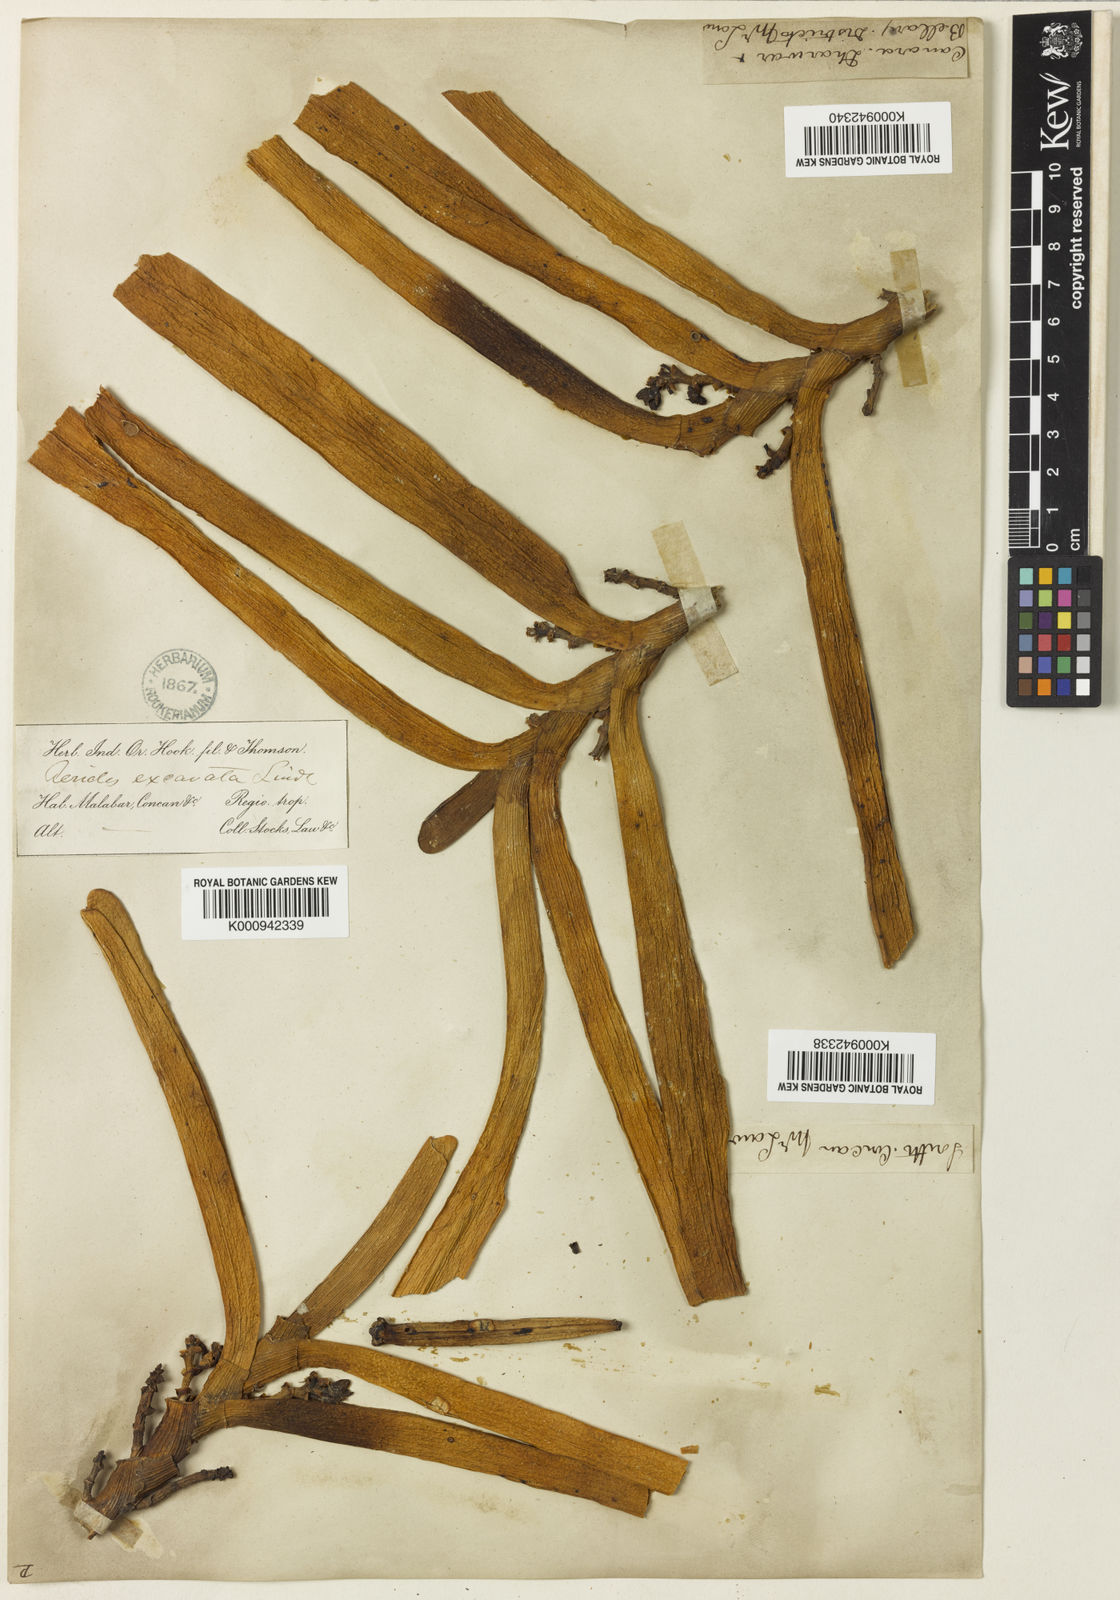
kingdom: Plantae
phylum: Tracheophyta
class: Liliopsida
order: Asparagales
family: Orchidaceae
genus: Acampe
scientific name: Acampe praemorsa
